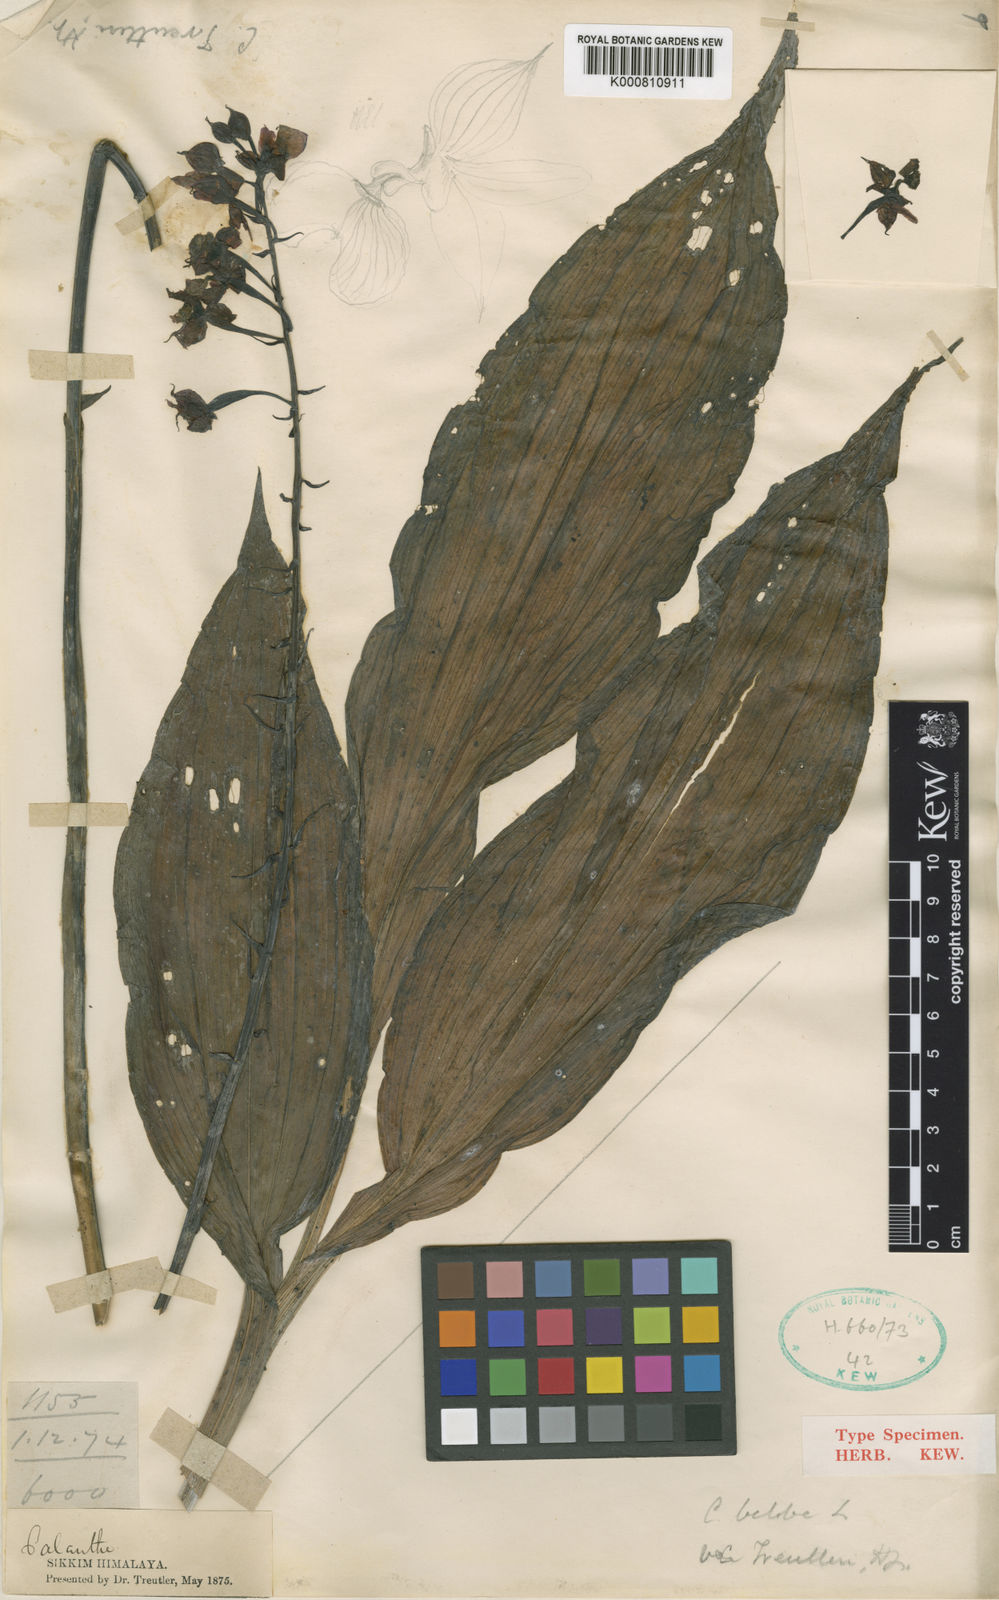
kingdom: Plantae
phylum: Tracheophyta
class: Liliopsida
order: Asparagales
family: Orchidaceae
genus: Calanthe
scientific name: Calanthe biloba
